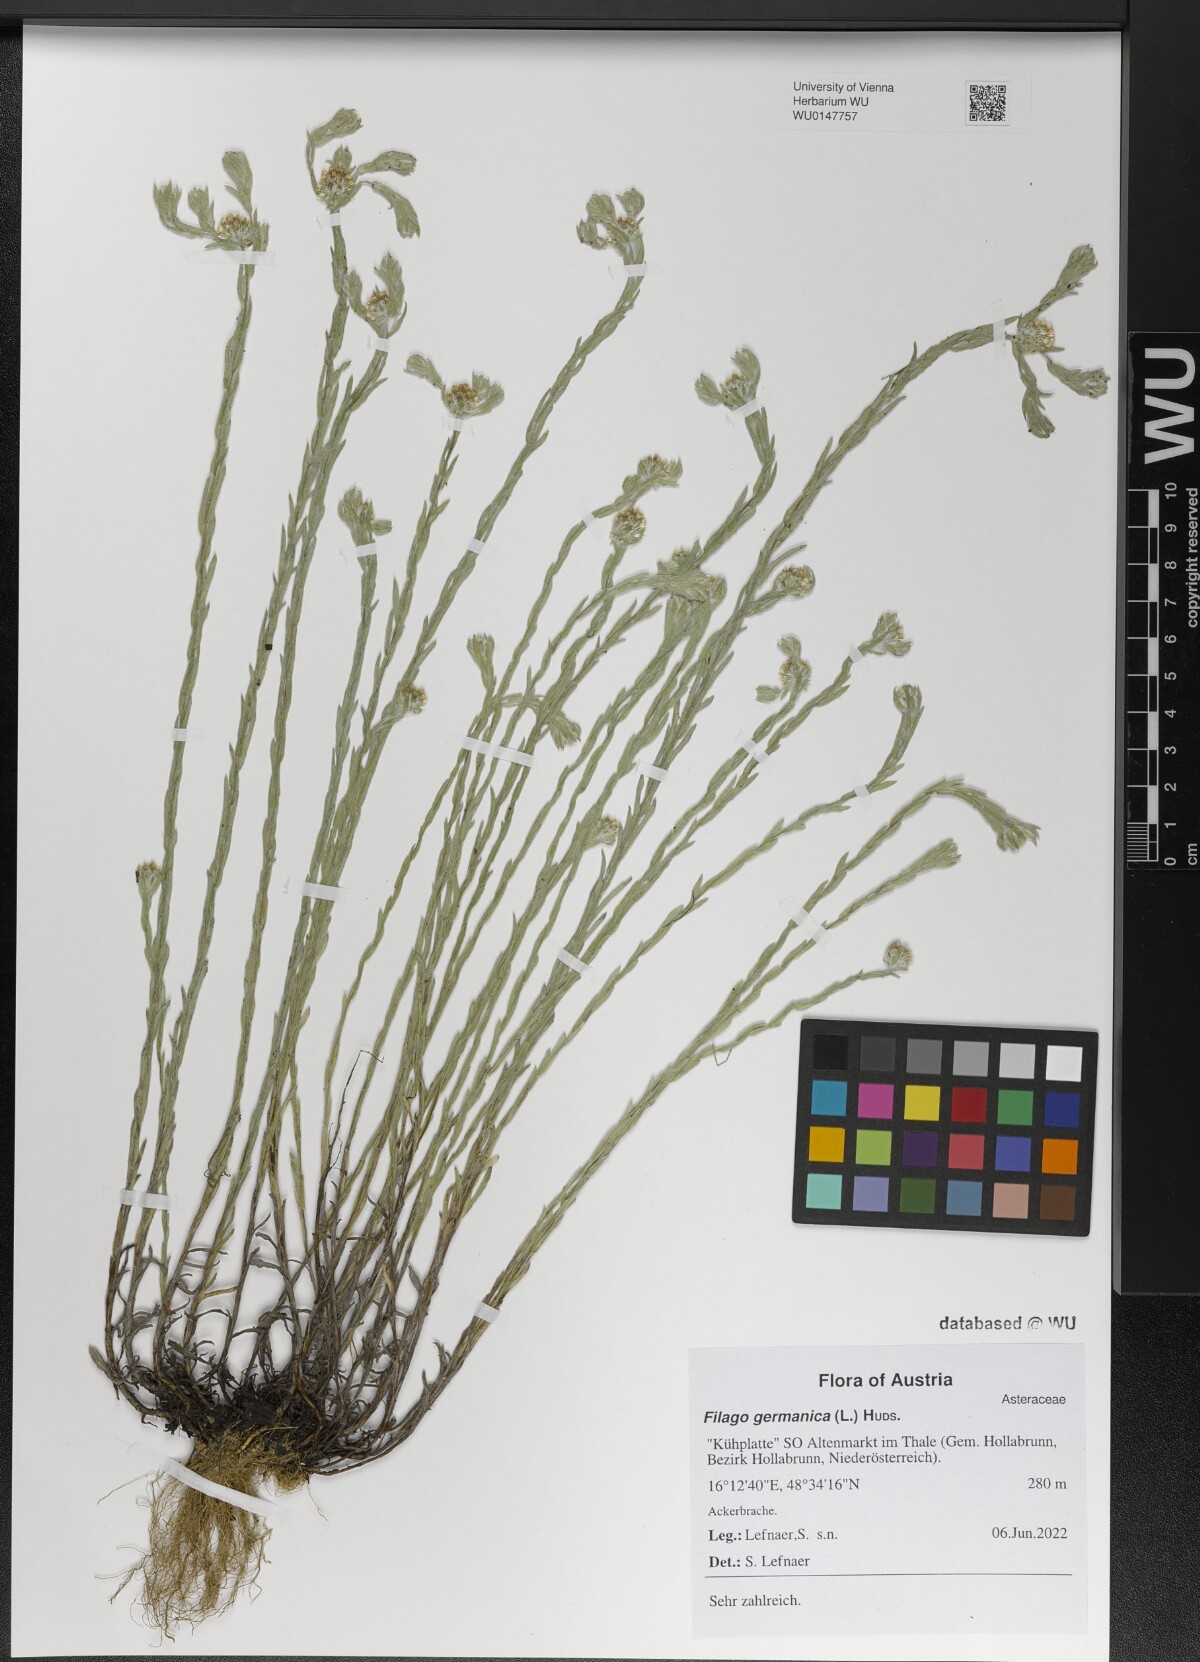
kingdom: Plantae
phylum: Tracheophyta
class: Magnoliopsida
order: Asterales
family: Asteraceae
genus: Filago
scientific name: Filago germanica
